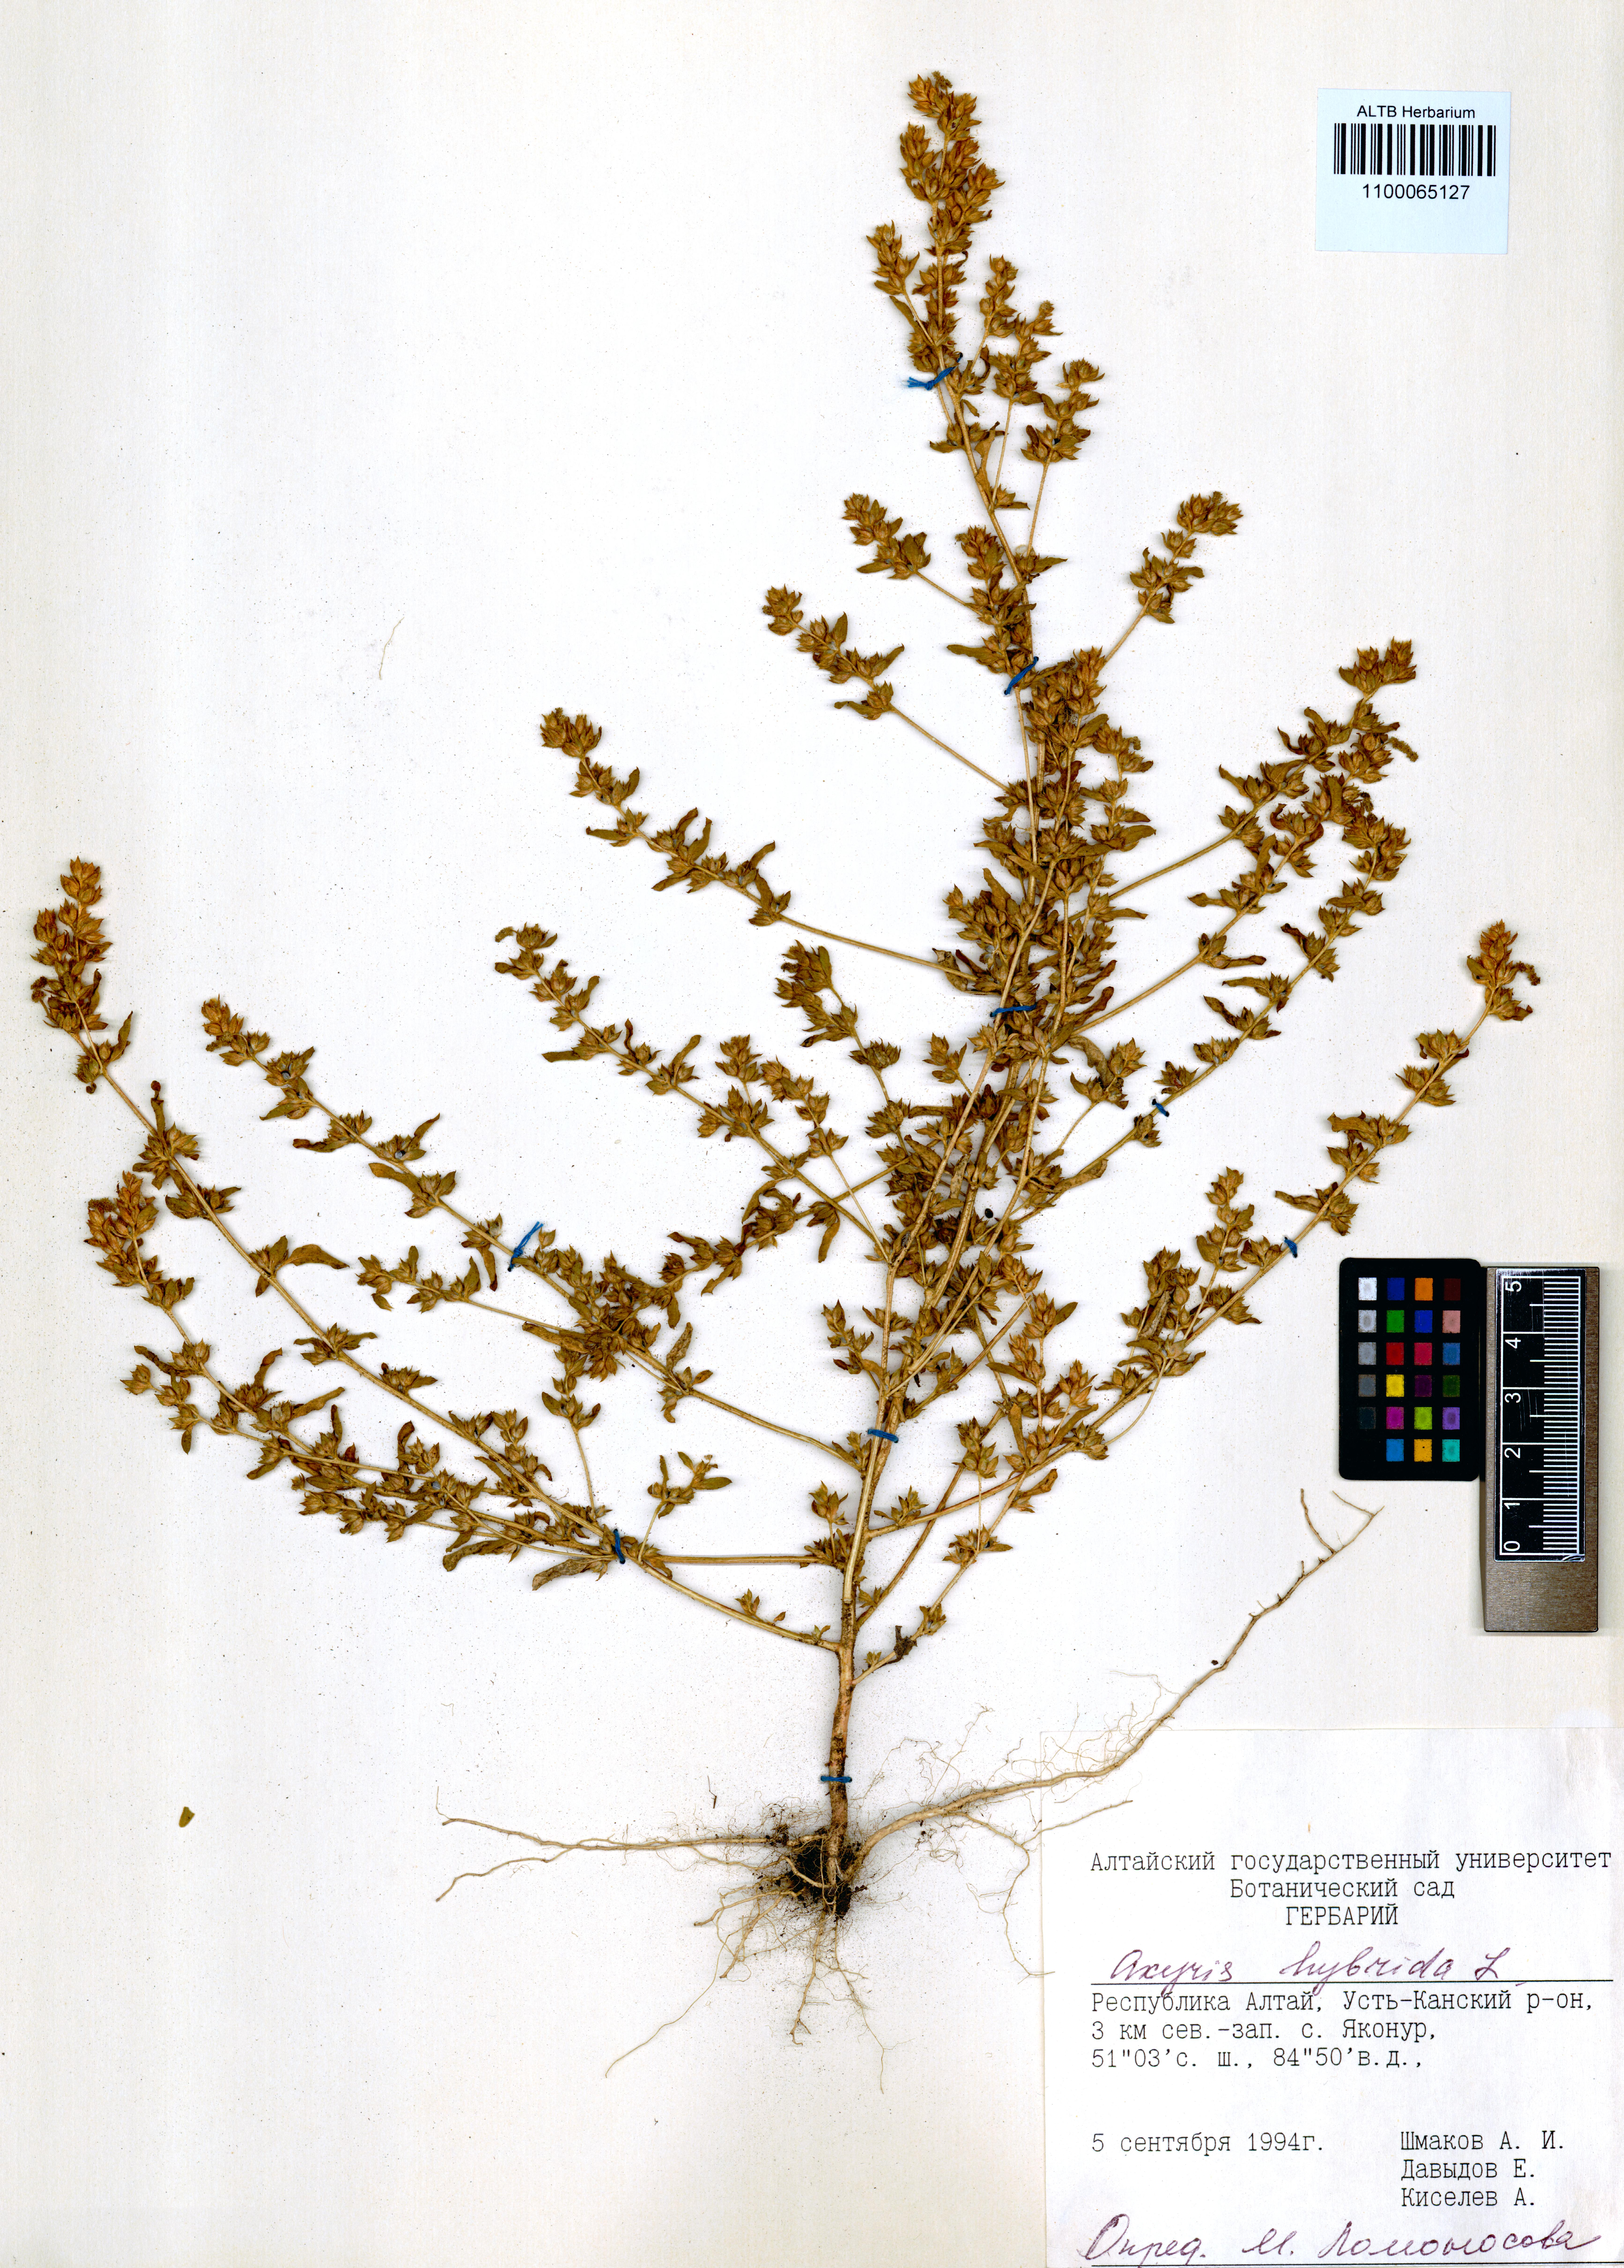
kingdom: Plantae
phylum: Tracheophyta
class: Magnoliopsida
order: Caryophyllales
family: Amaranthaceae
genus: Axyris
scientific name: Axyris hybrida
